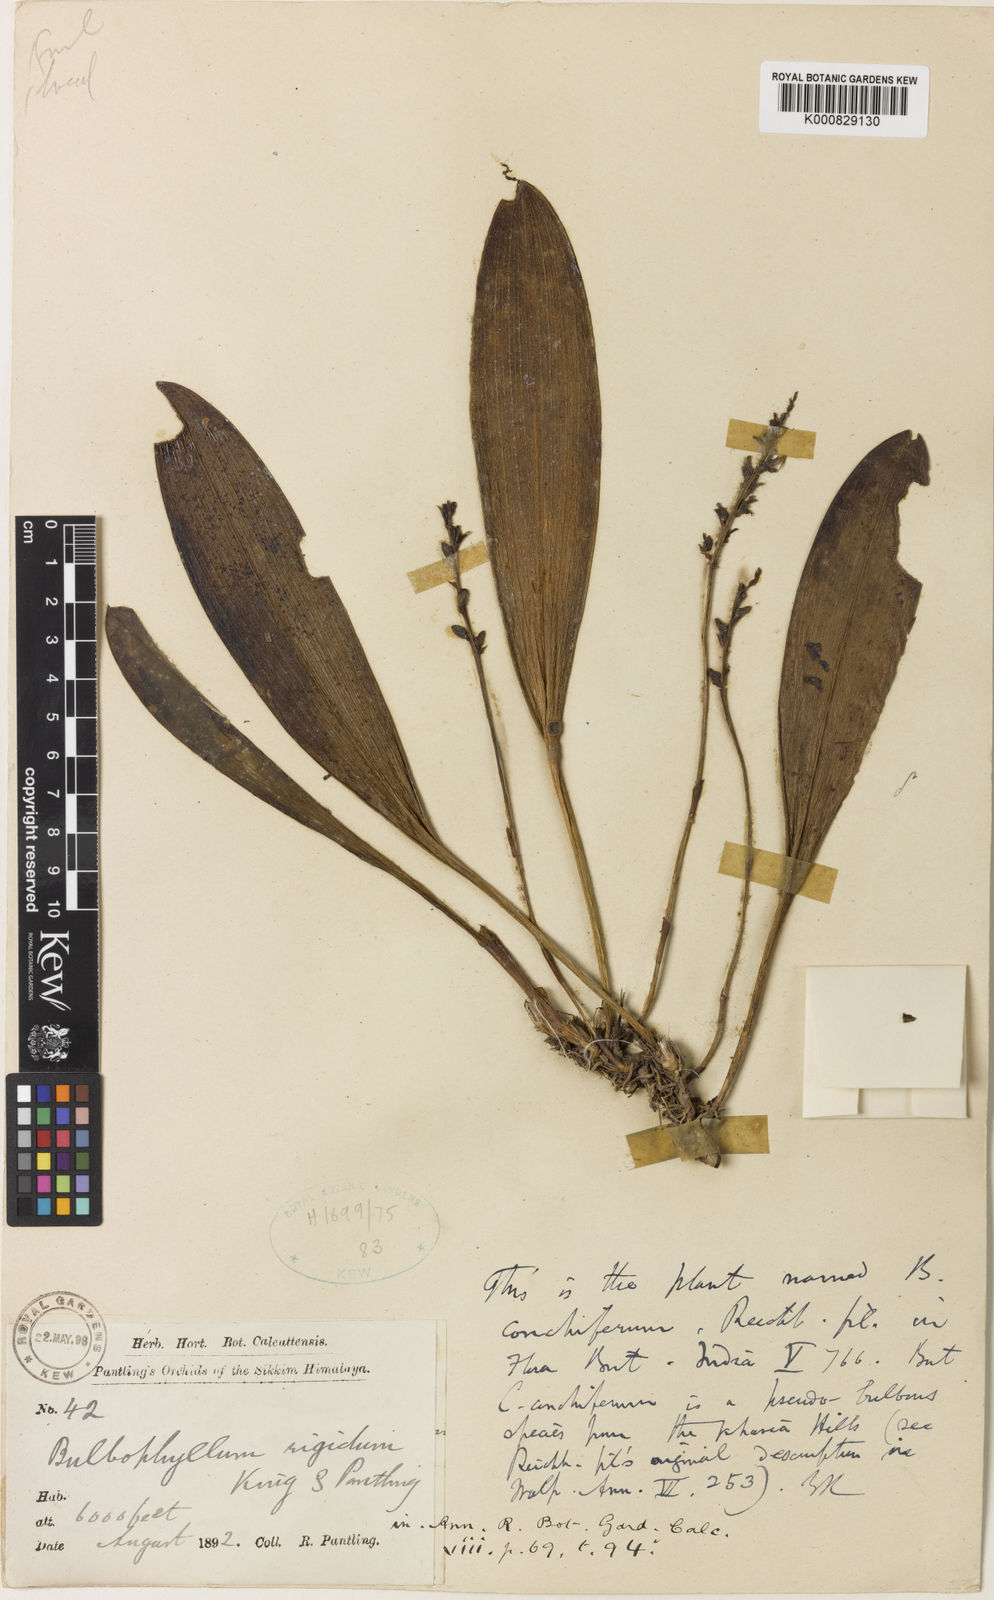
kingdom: Plantae
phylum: Tracheophyta
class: Liliopsida
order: Asparagales
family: Orchidaceae
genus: Bulbophyllum
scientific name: Bulbophyllum rigidum
